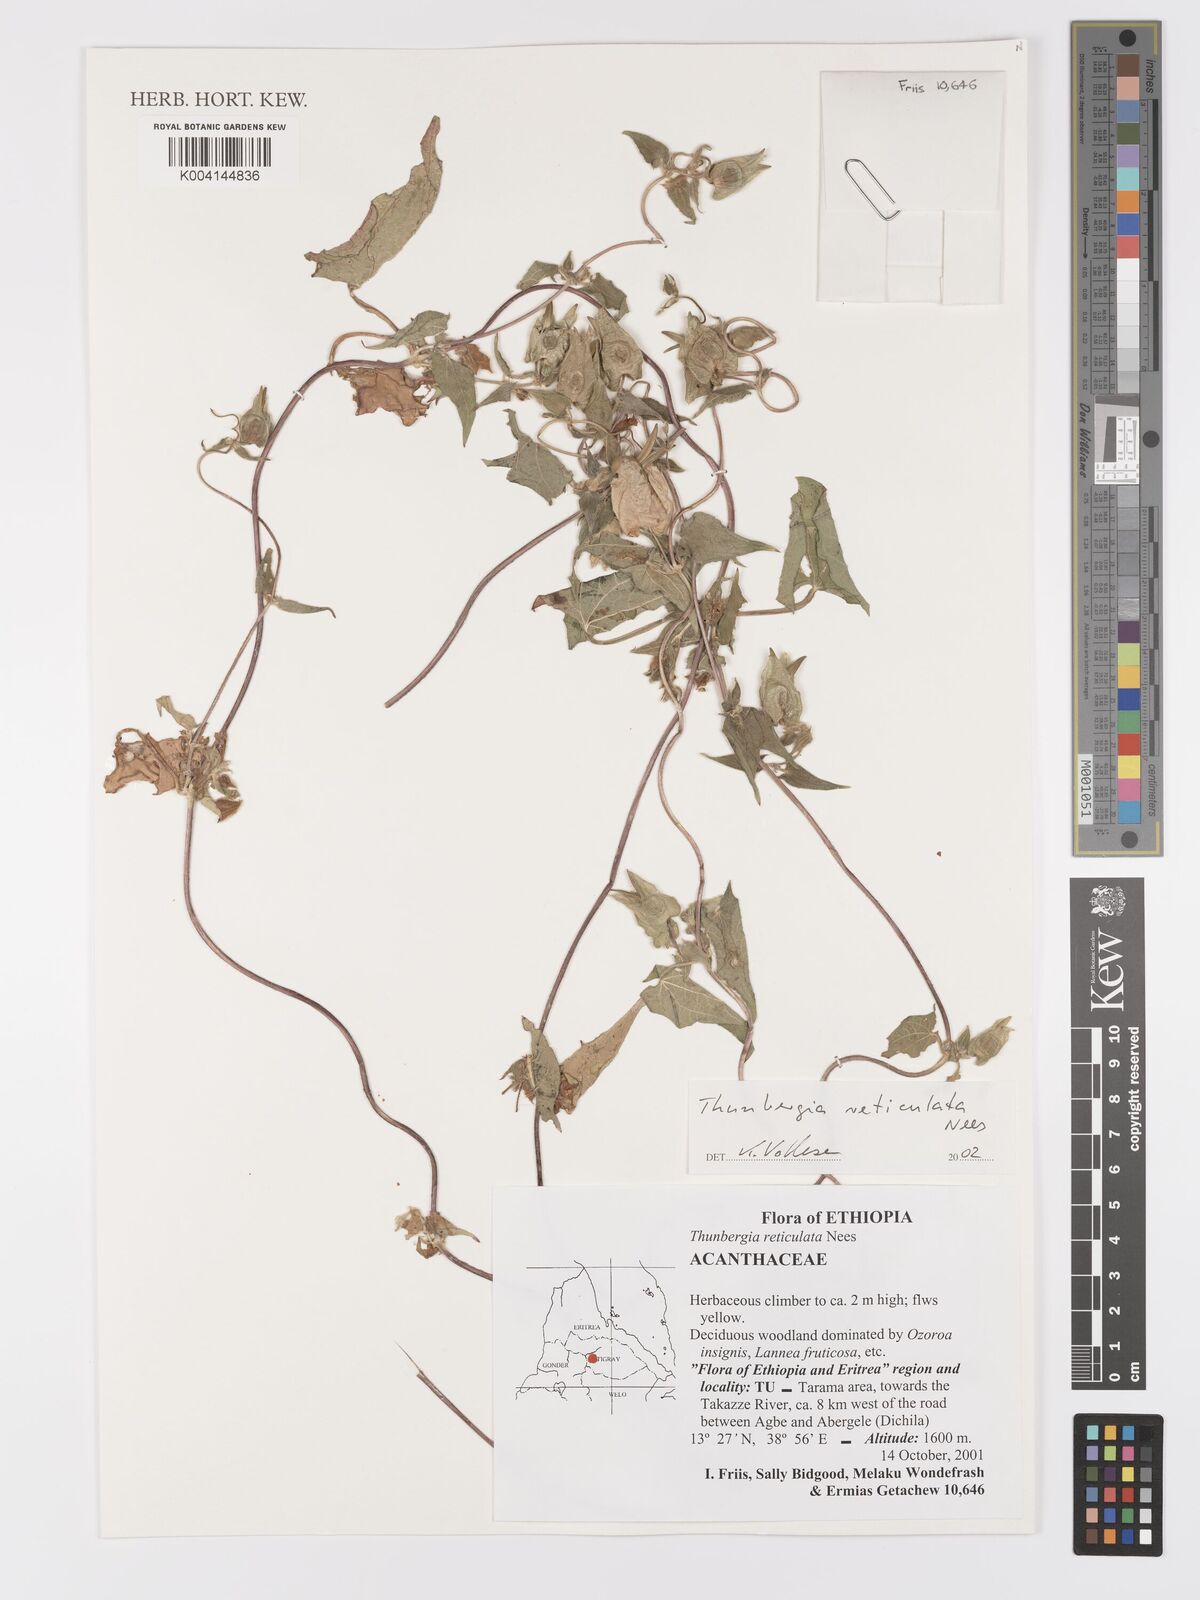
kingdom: Plantae
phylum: Tracheophyta
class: Magnoliopsida
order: Lamiales
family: Acanthaceae
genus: Thunbergia
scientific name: Thunbergia reticulata
